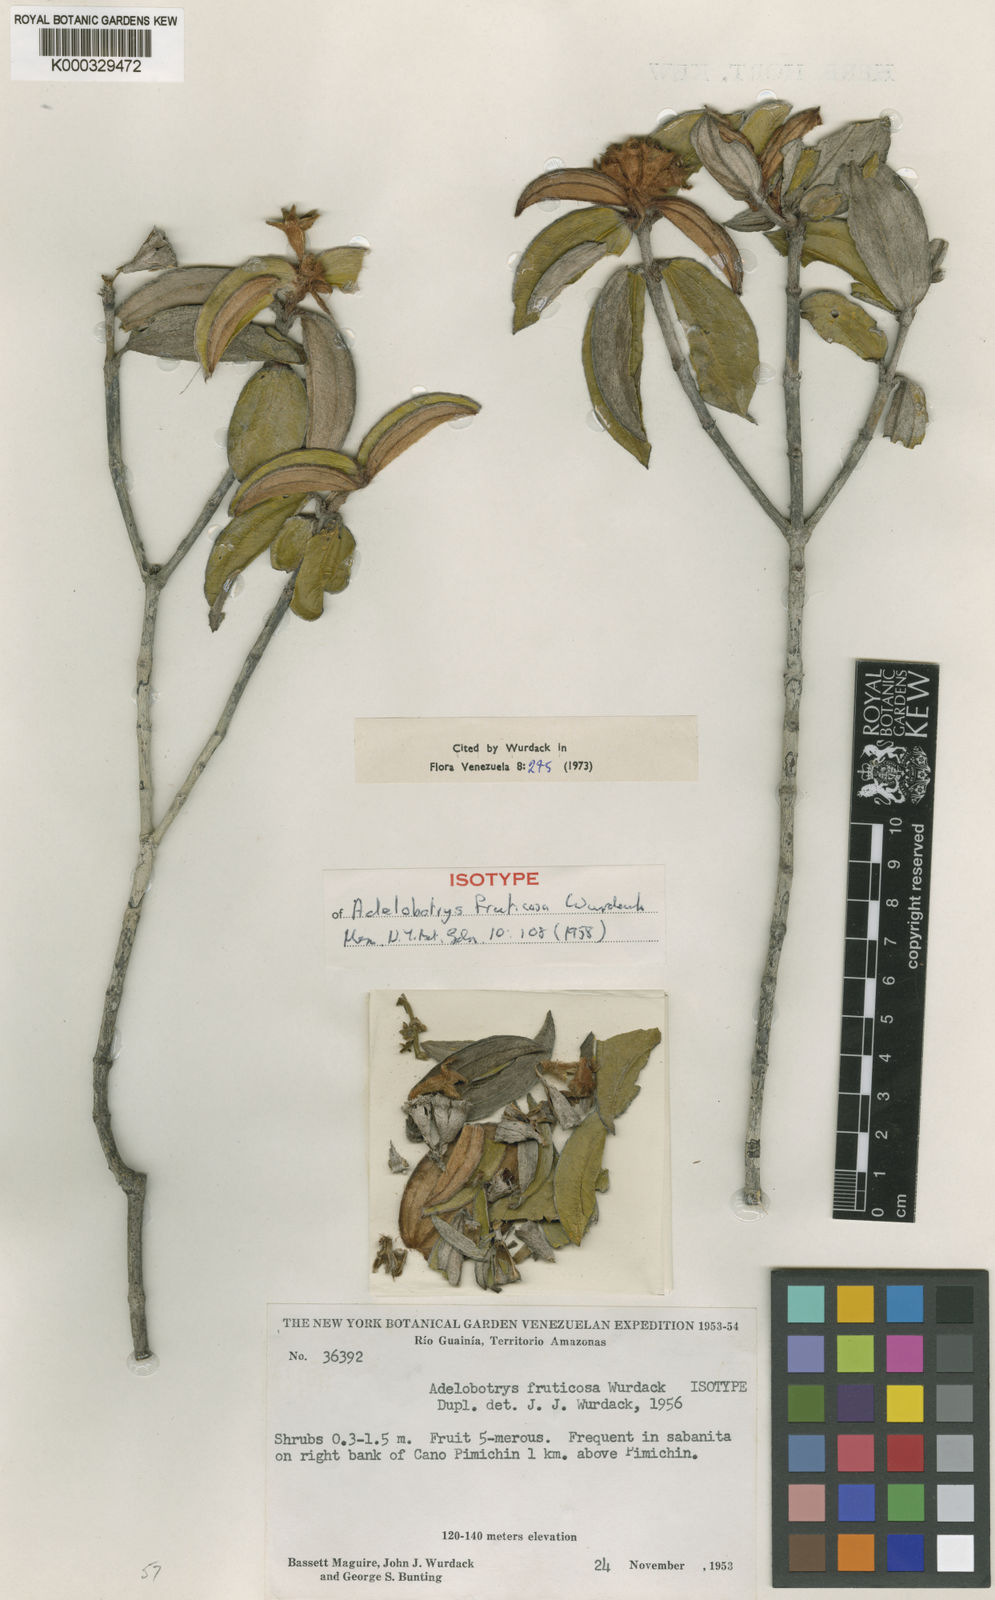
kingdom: Plantae
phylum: Tracheophyta
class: Magnoliopsida
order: Myrtales
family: Melastomataceae
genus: Adelobotrys
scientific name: Adelobotrys fruticosus
